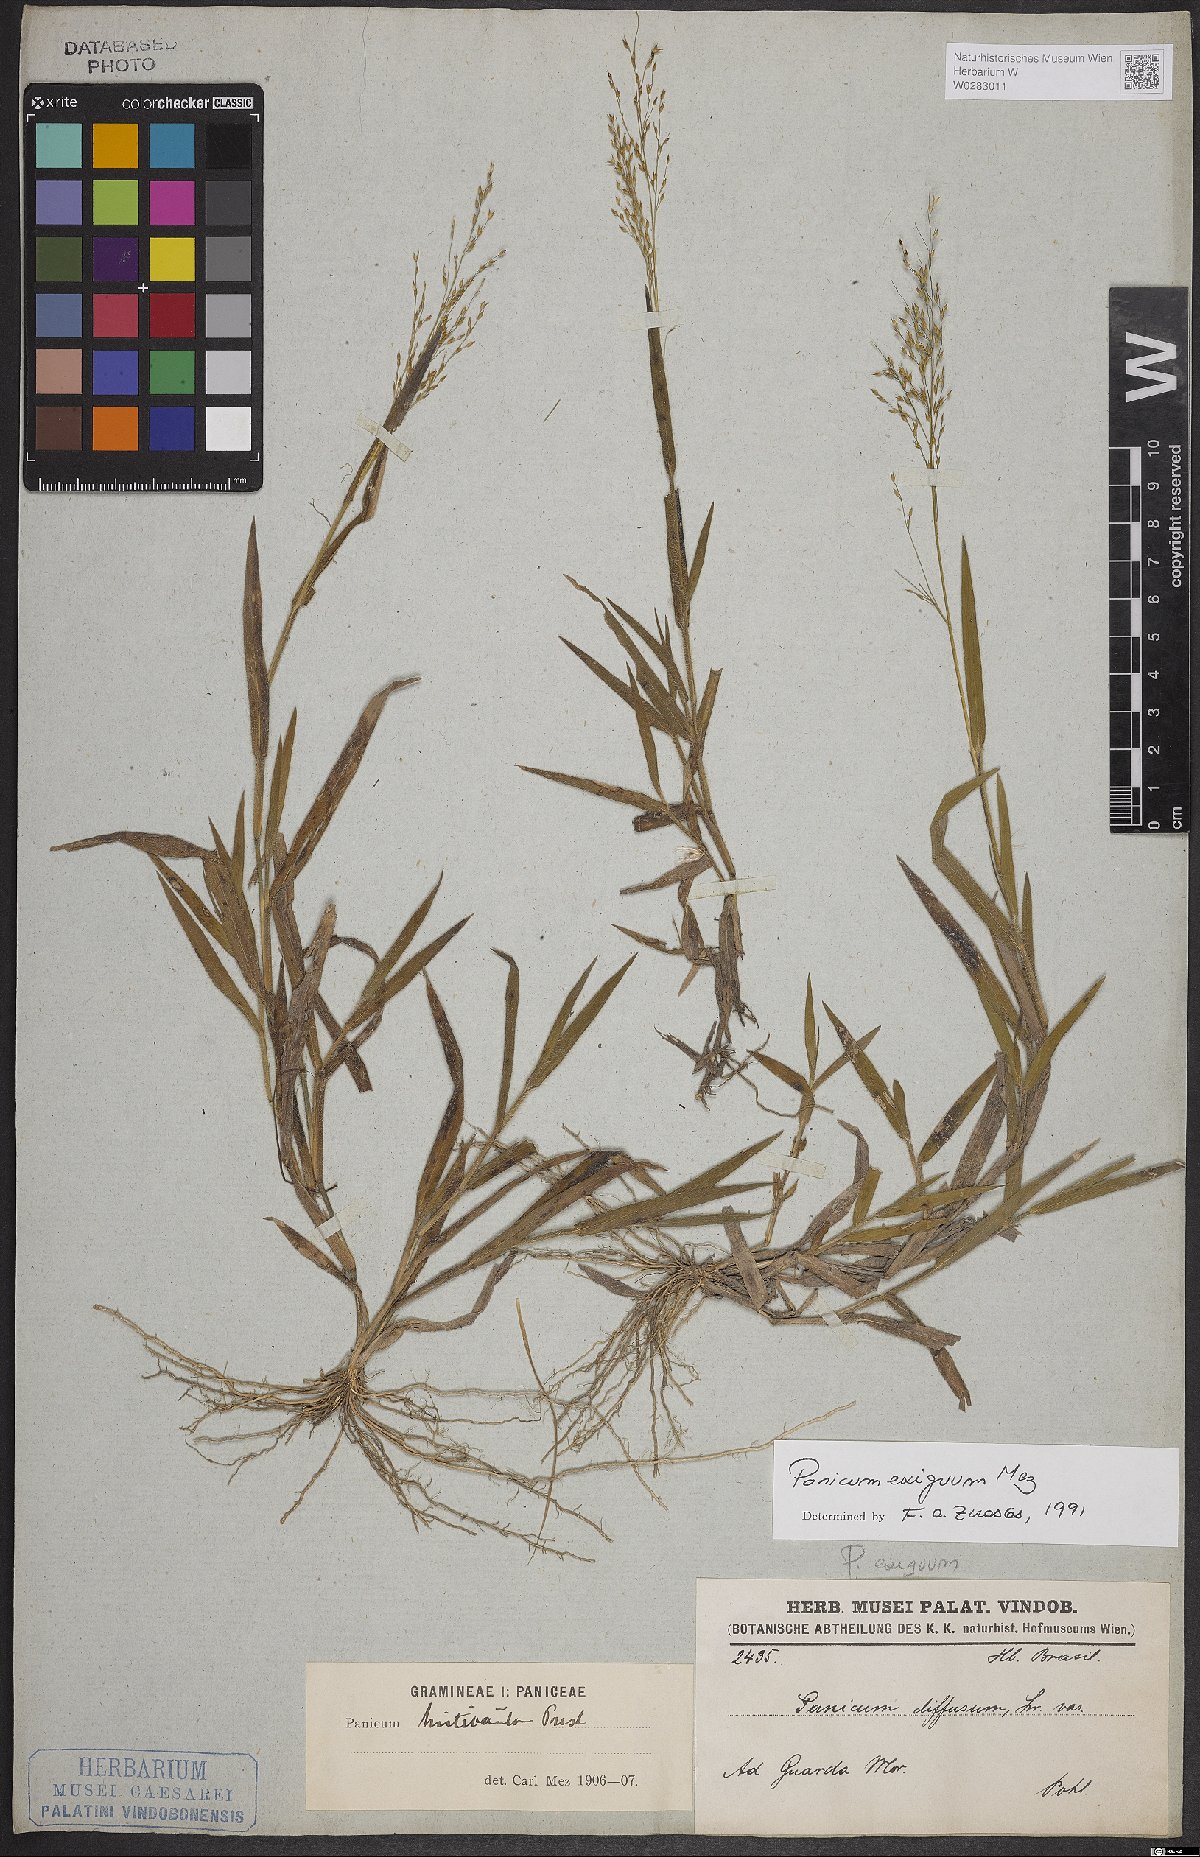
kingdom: Plantae
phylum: Tracheophyta
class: Liliopsida
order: Poales
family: Poaceae
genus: Panicum
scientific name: Panicum exiguum
